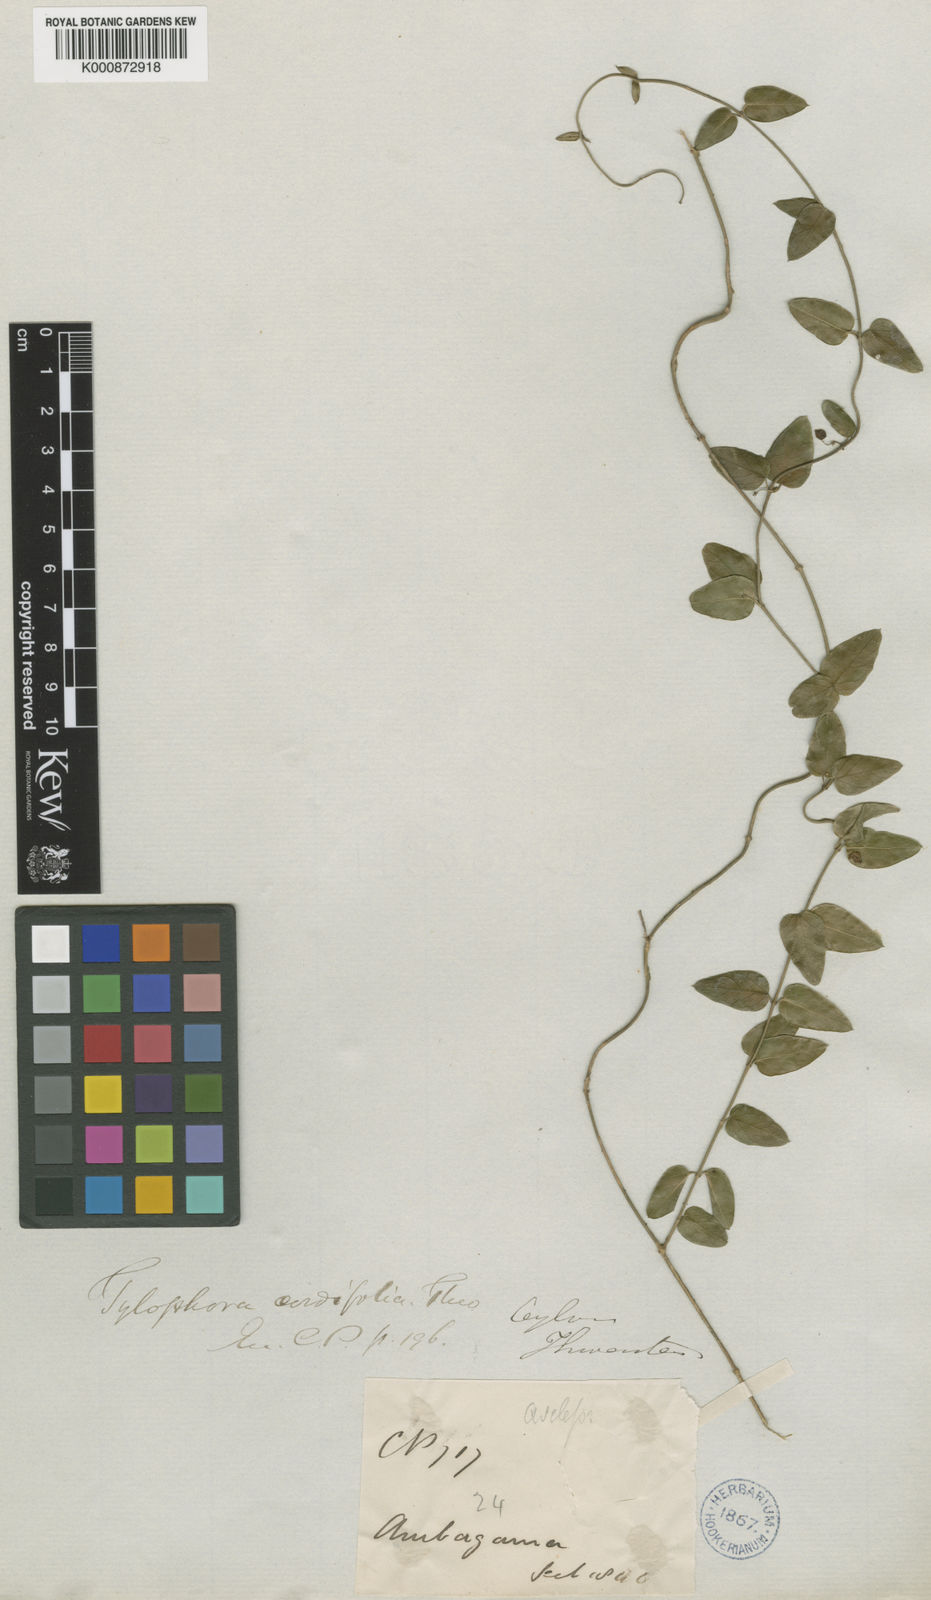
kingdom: Plantae
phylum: Tracheophyta
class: Magnoliopsida
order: Gentianales
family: Apocynaceae
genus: Vincetoxicum
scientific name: Vincetoxicum cordifolium
